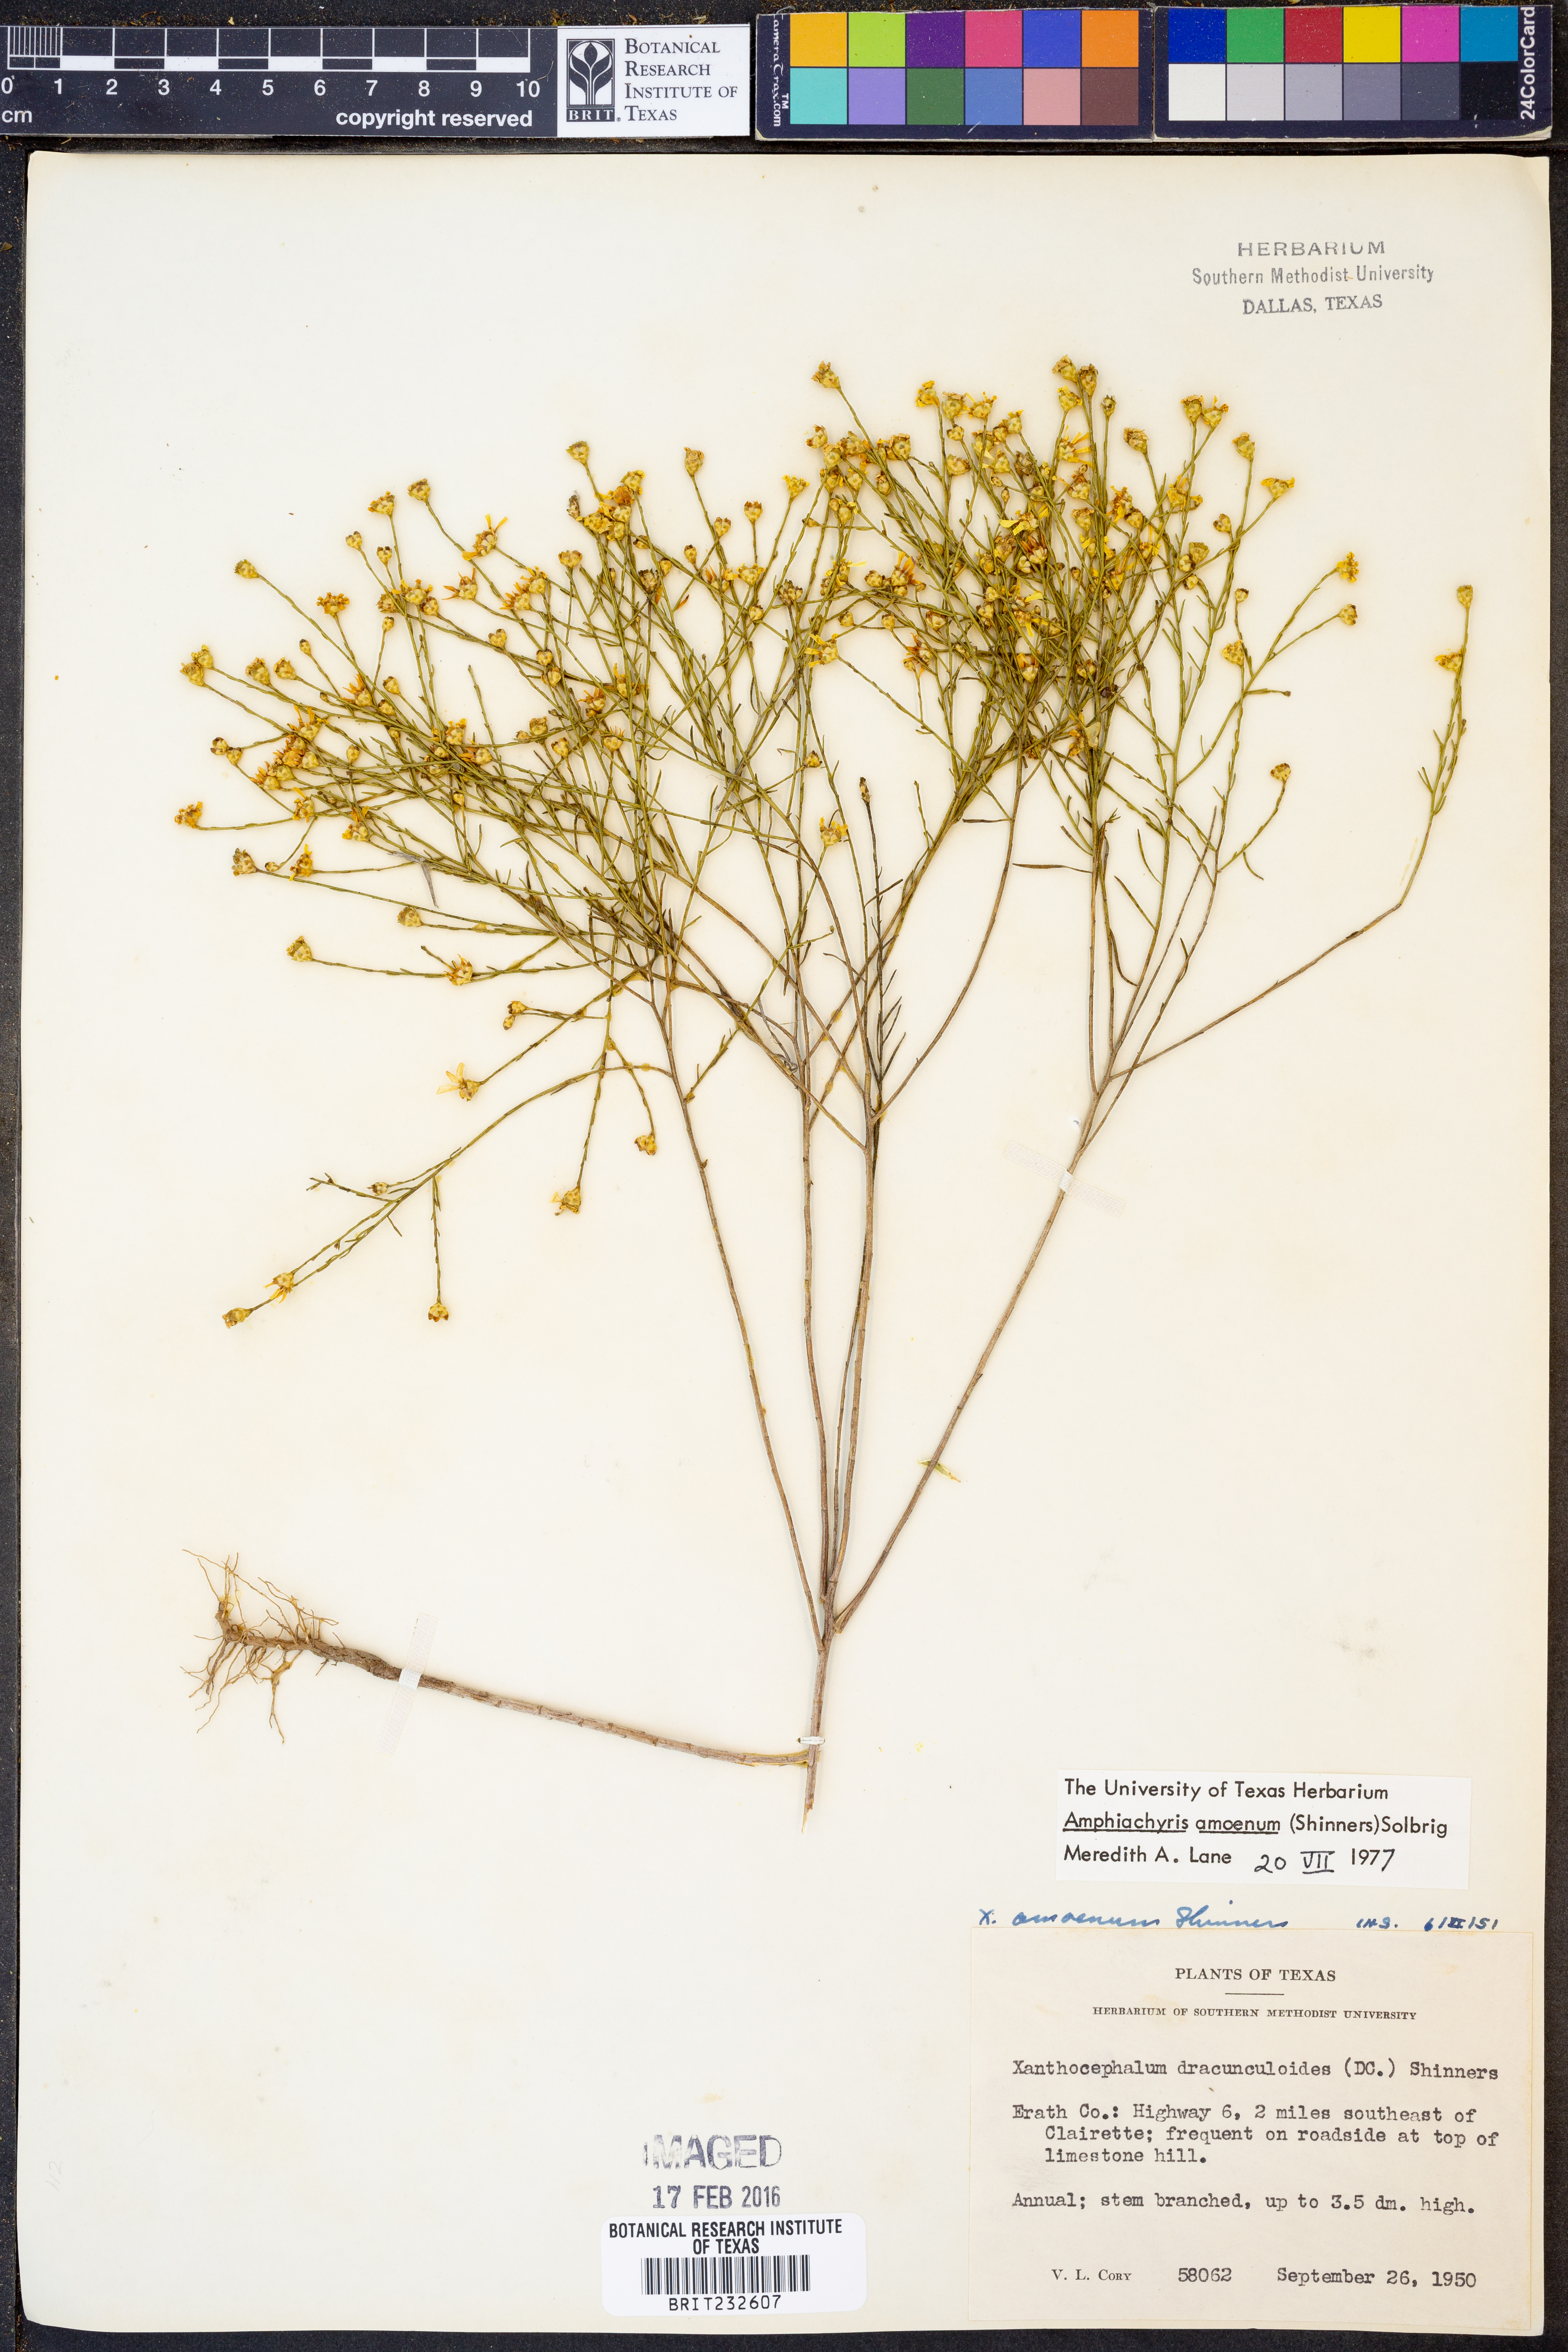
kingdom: Plantae
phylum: Tracheophyta
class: Magnoliopsida
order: Asterales
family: Asteraceae
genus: Amphiachyris
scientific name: Amphiachyris amoenum
